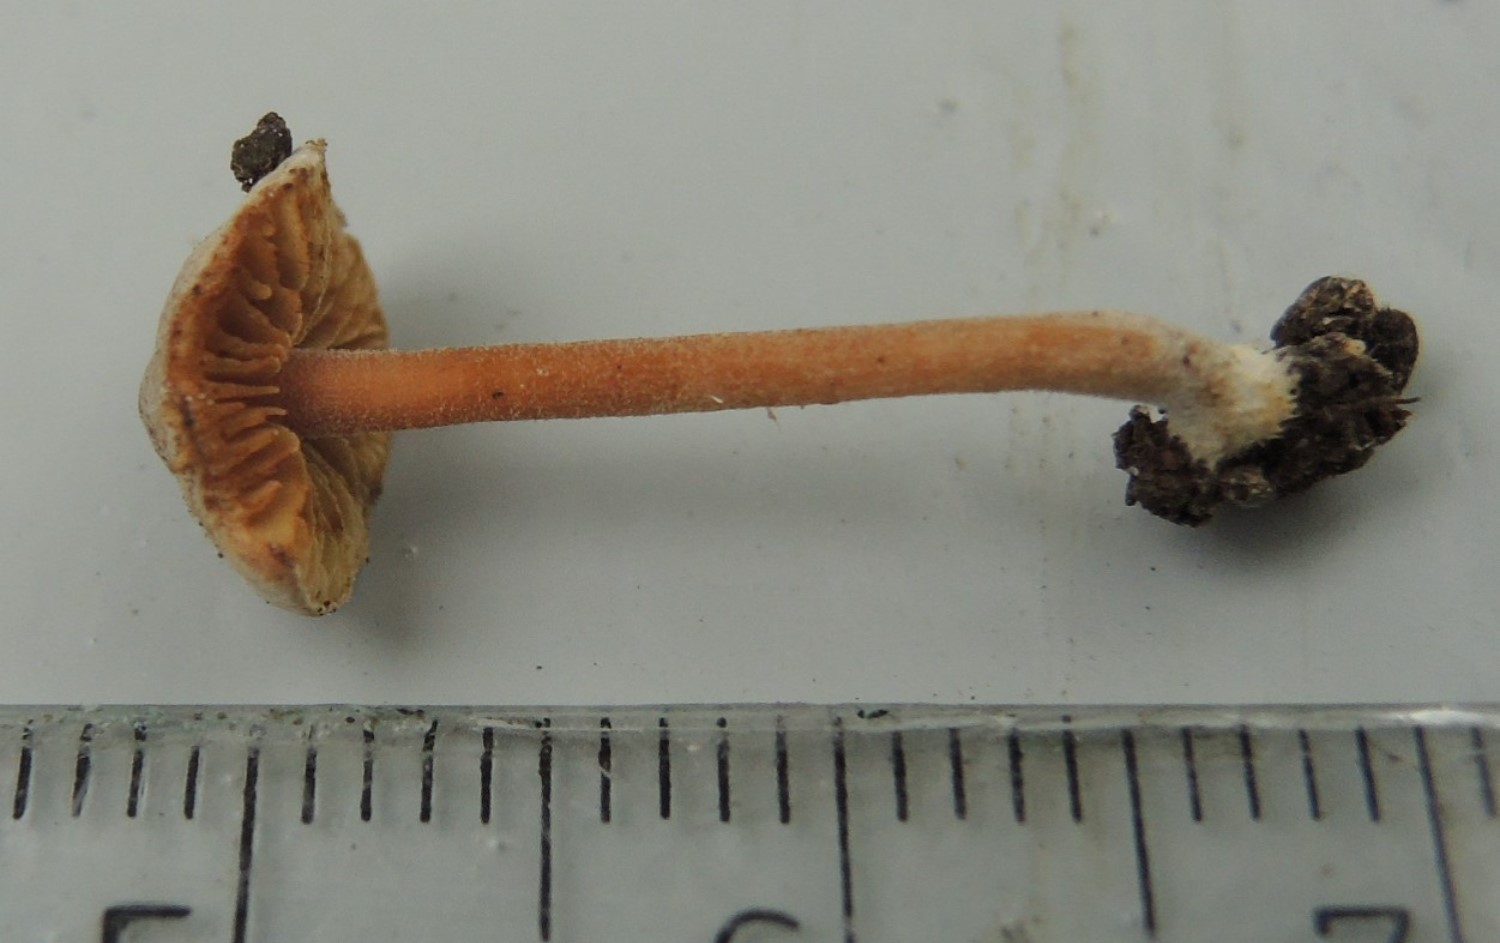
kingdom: Fungi
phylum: Basidiomycota
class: Agaricomycetes
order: Agaricales
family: Inocybaceae
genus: Inocybe
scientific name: Inocybe petiginosa
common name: liden trævlhat
